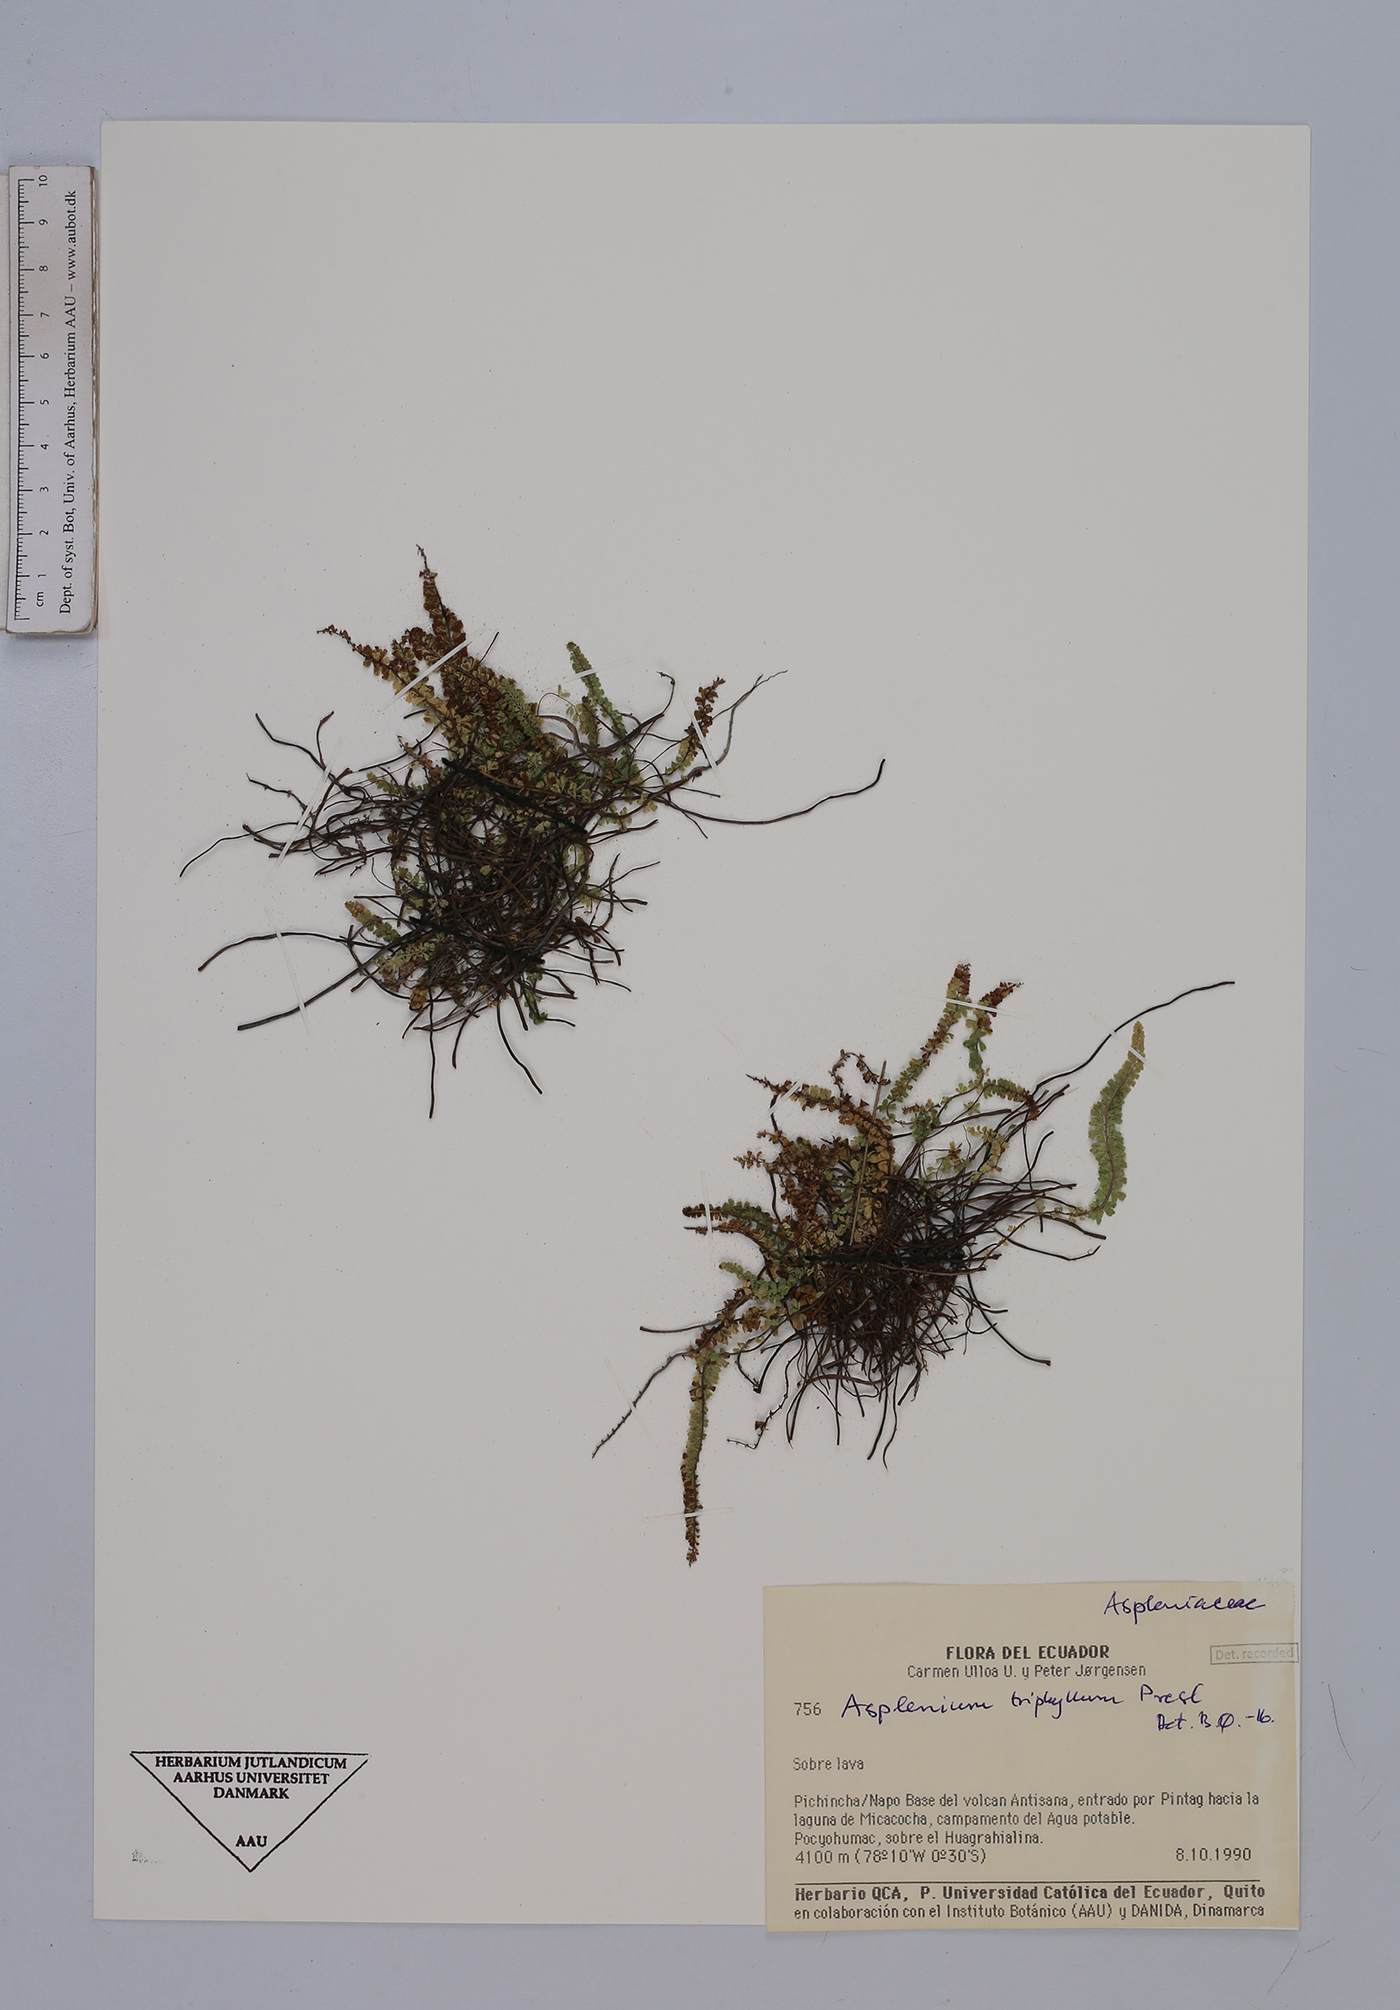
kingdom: Plantae
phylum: Tracheophyta
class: Polypodiopsida
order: Polypodiales
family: Aspleniaceae
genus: Asplenium
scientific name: Asplenium triphyllum
